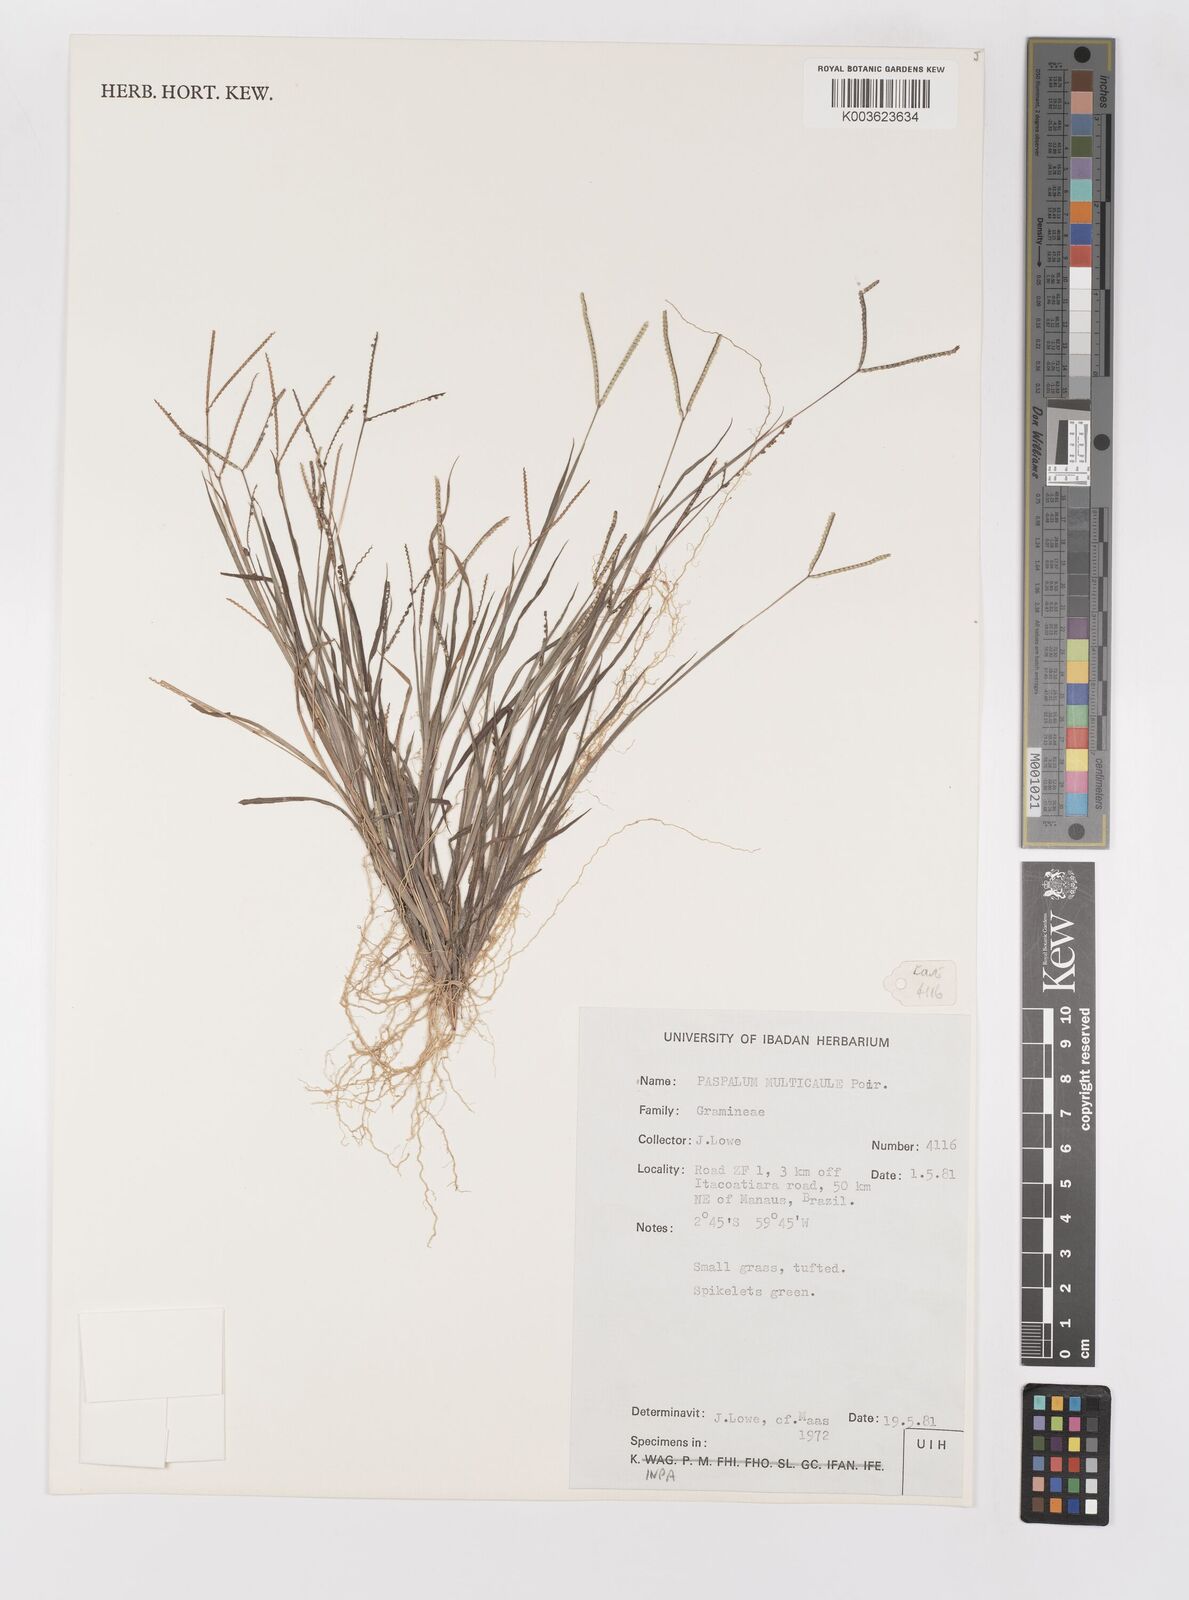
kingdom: Plantae
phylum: Tracheophyta
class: Liliopsida
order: Poales
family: Poaceae
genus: Paspalum
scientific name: Paspalum multicaule
